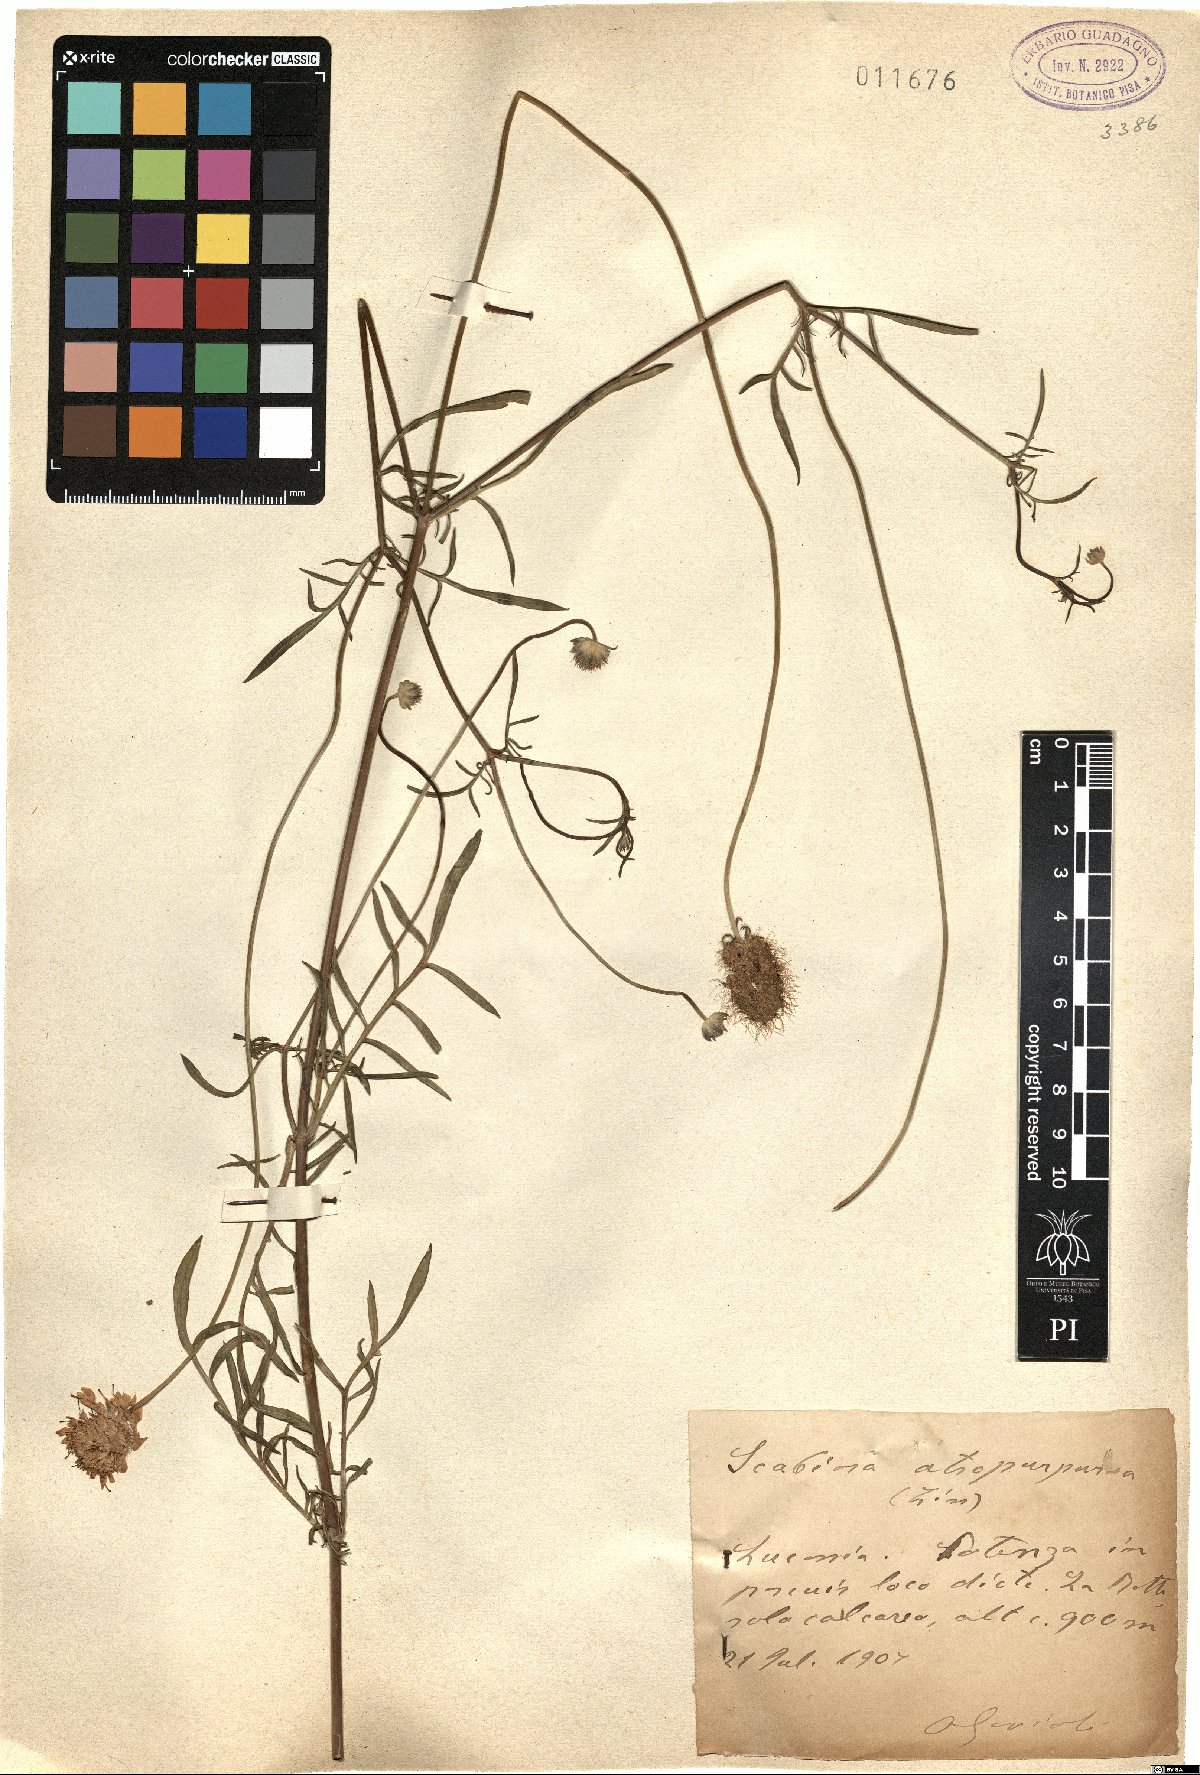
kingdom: Plantae
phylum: Tracheophyta
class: Magnoliopsida
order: Dipsacales
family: Caprifoliaceae
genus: Sixalix
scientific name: Sixalix atropurpurea
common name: Sweet scabious
